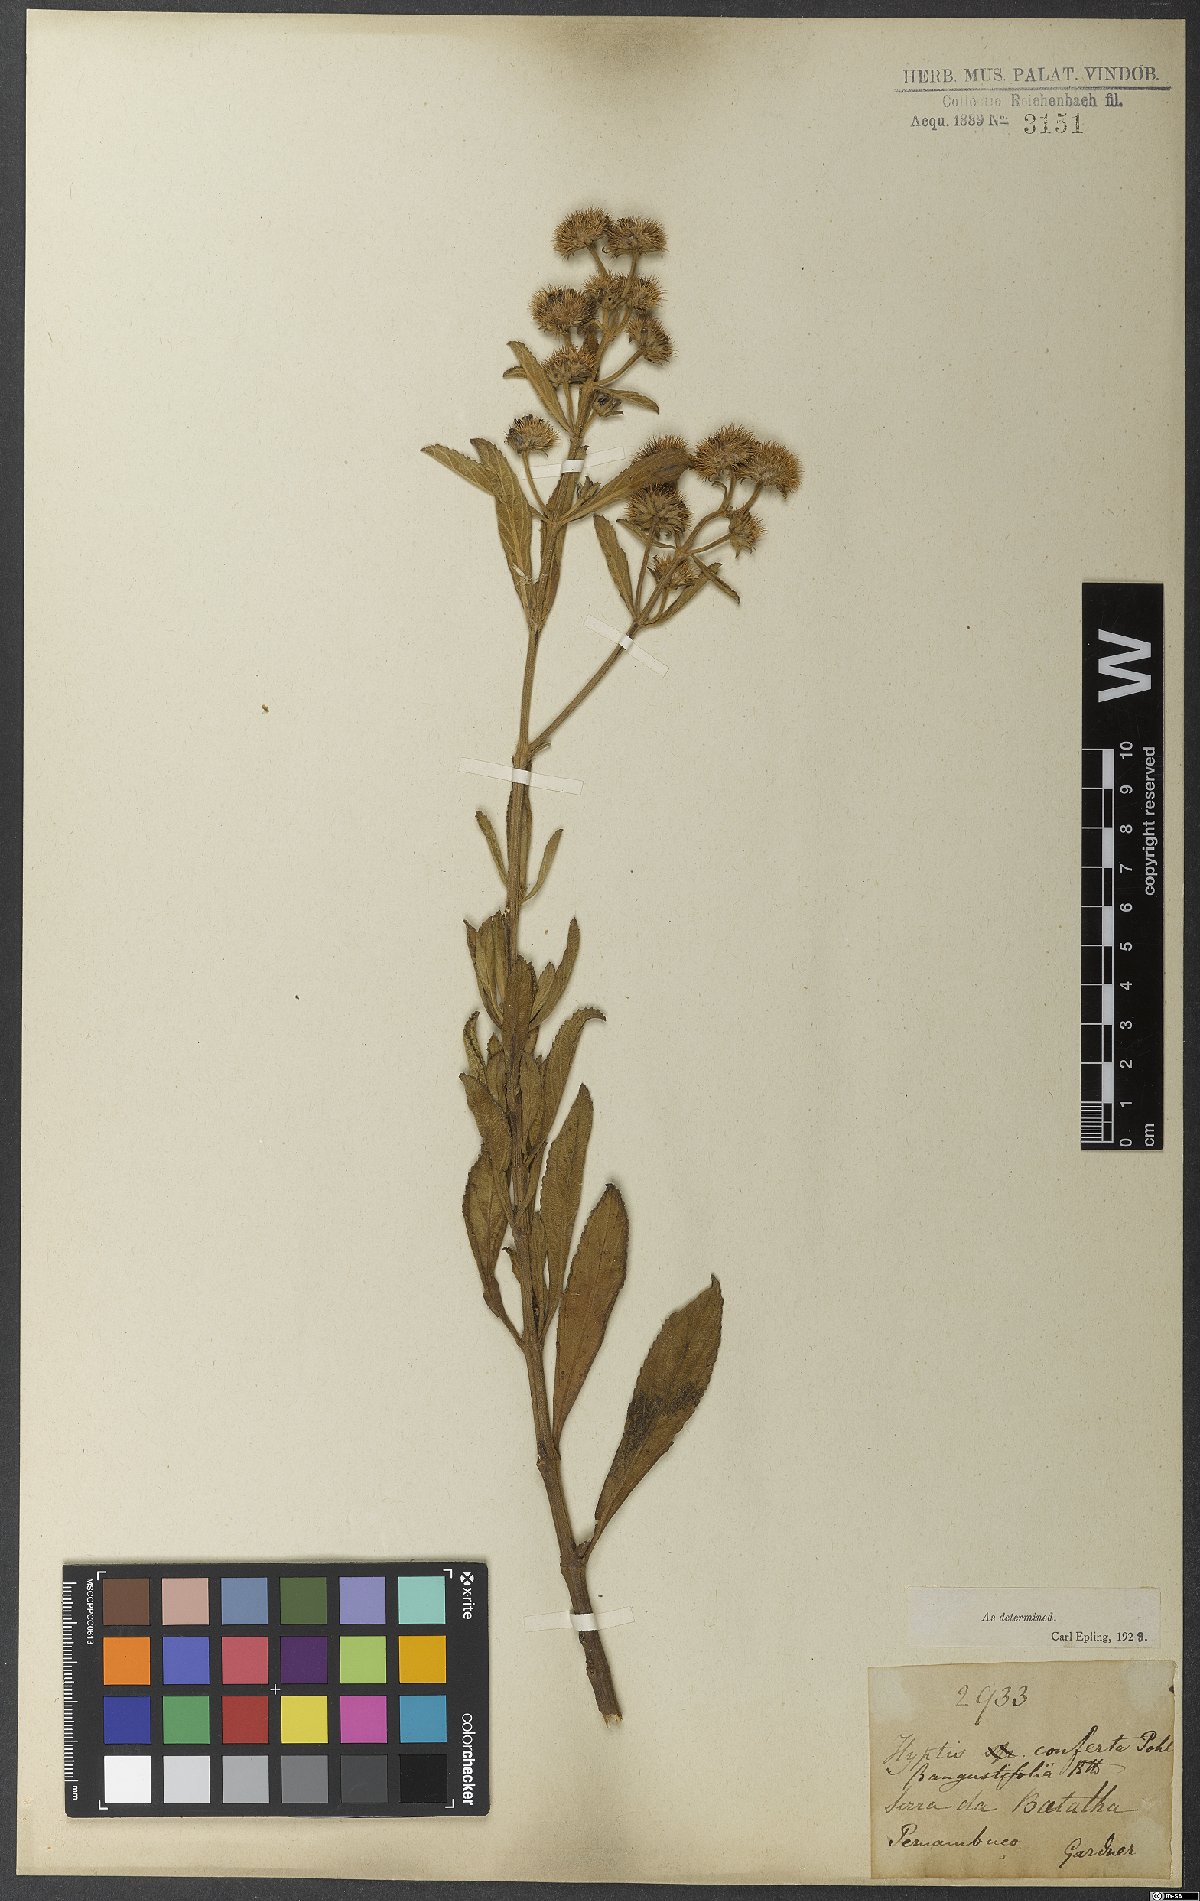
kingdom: Plantae
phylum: Tracheophyta
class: Magnoliopsida
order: Lamiales
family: Lamiaceae
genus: Hyptis
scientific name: Hyptis conferta
